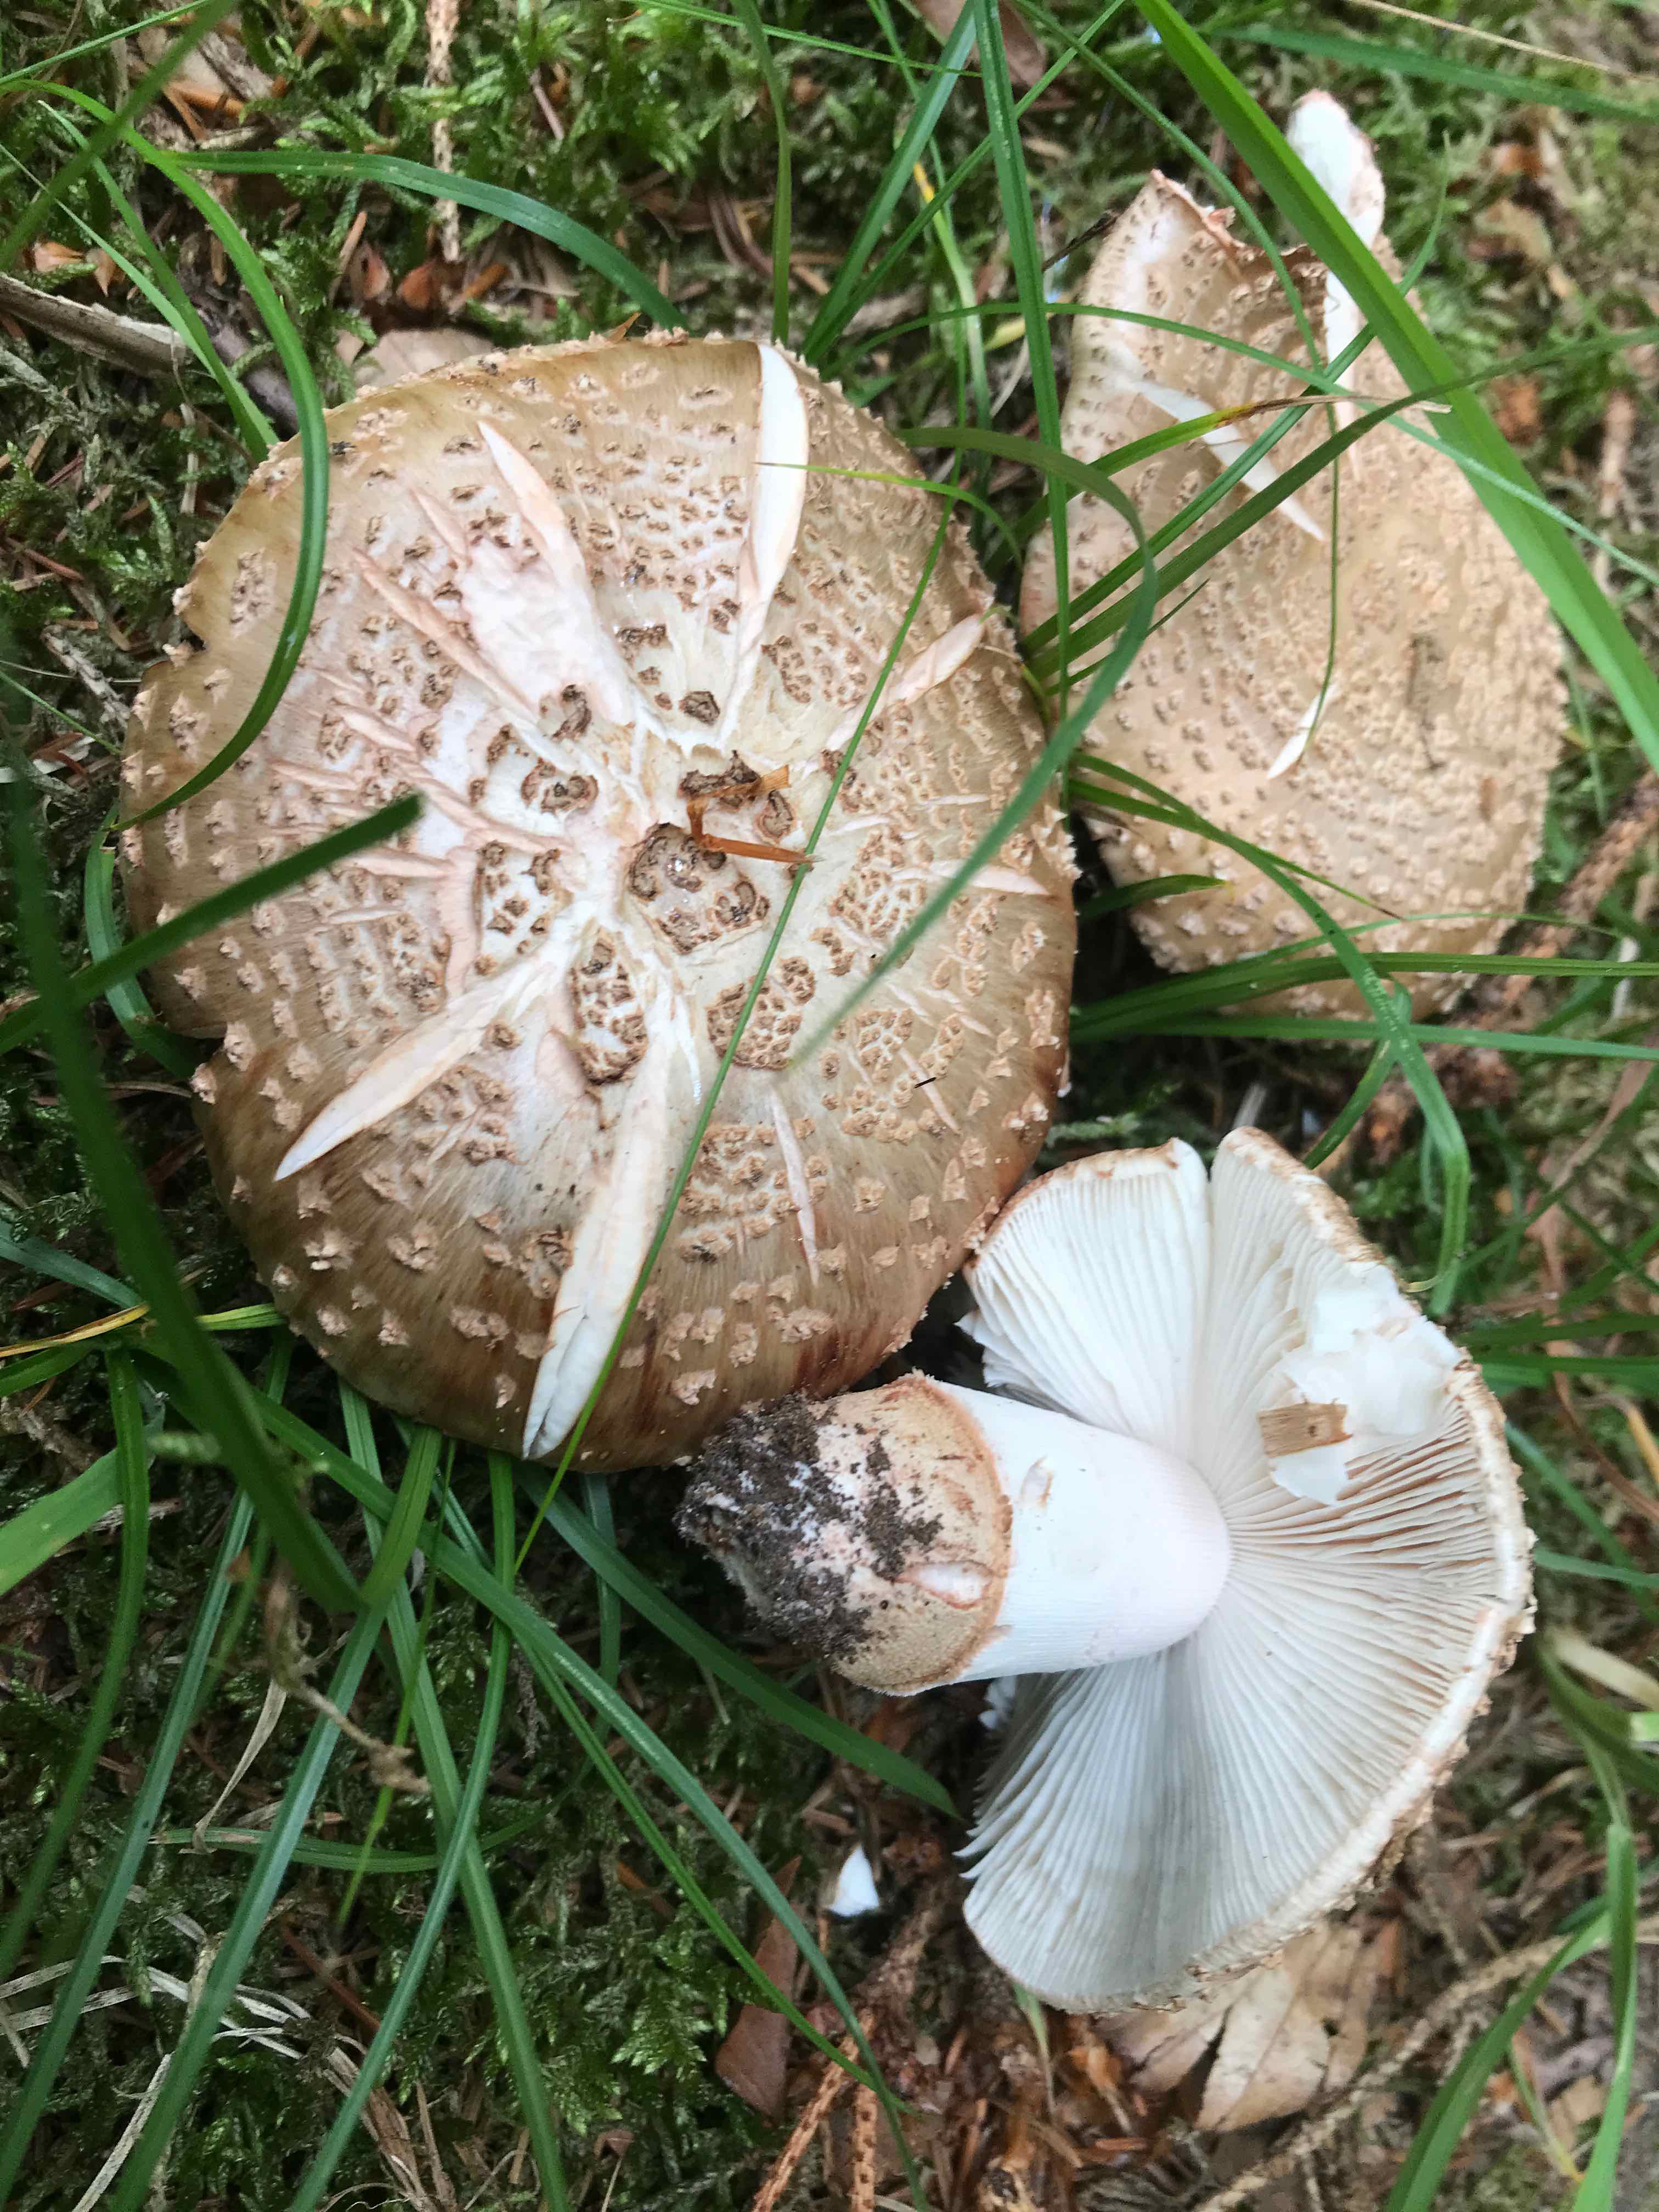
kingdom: Fungi
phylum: Basidiomycota
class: Agaricomycetes
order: Agaricales
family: Amanitaceae
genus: Amanita
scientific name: Amanita rubescens
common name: rødmende fluesvamp
